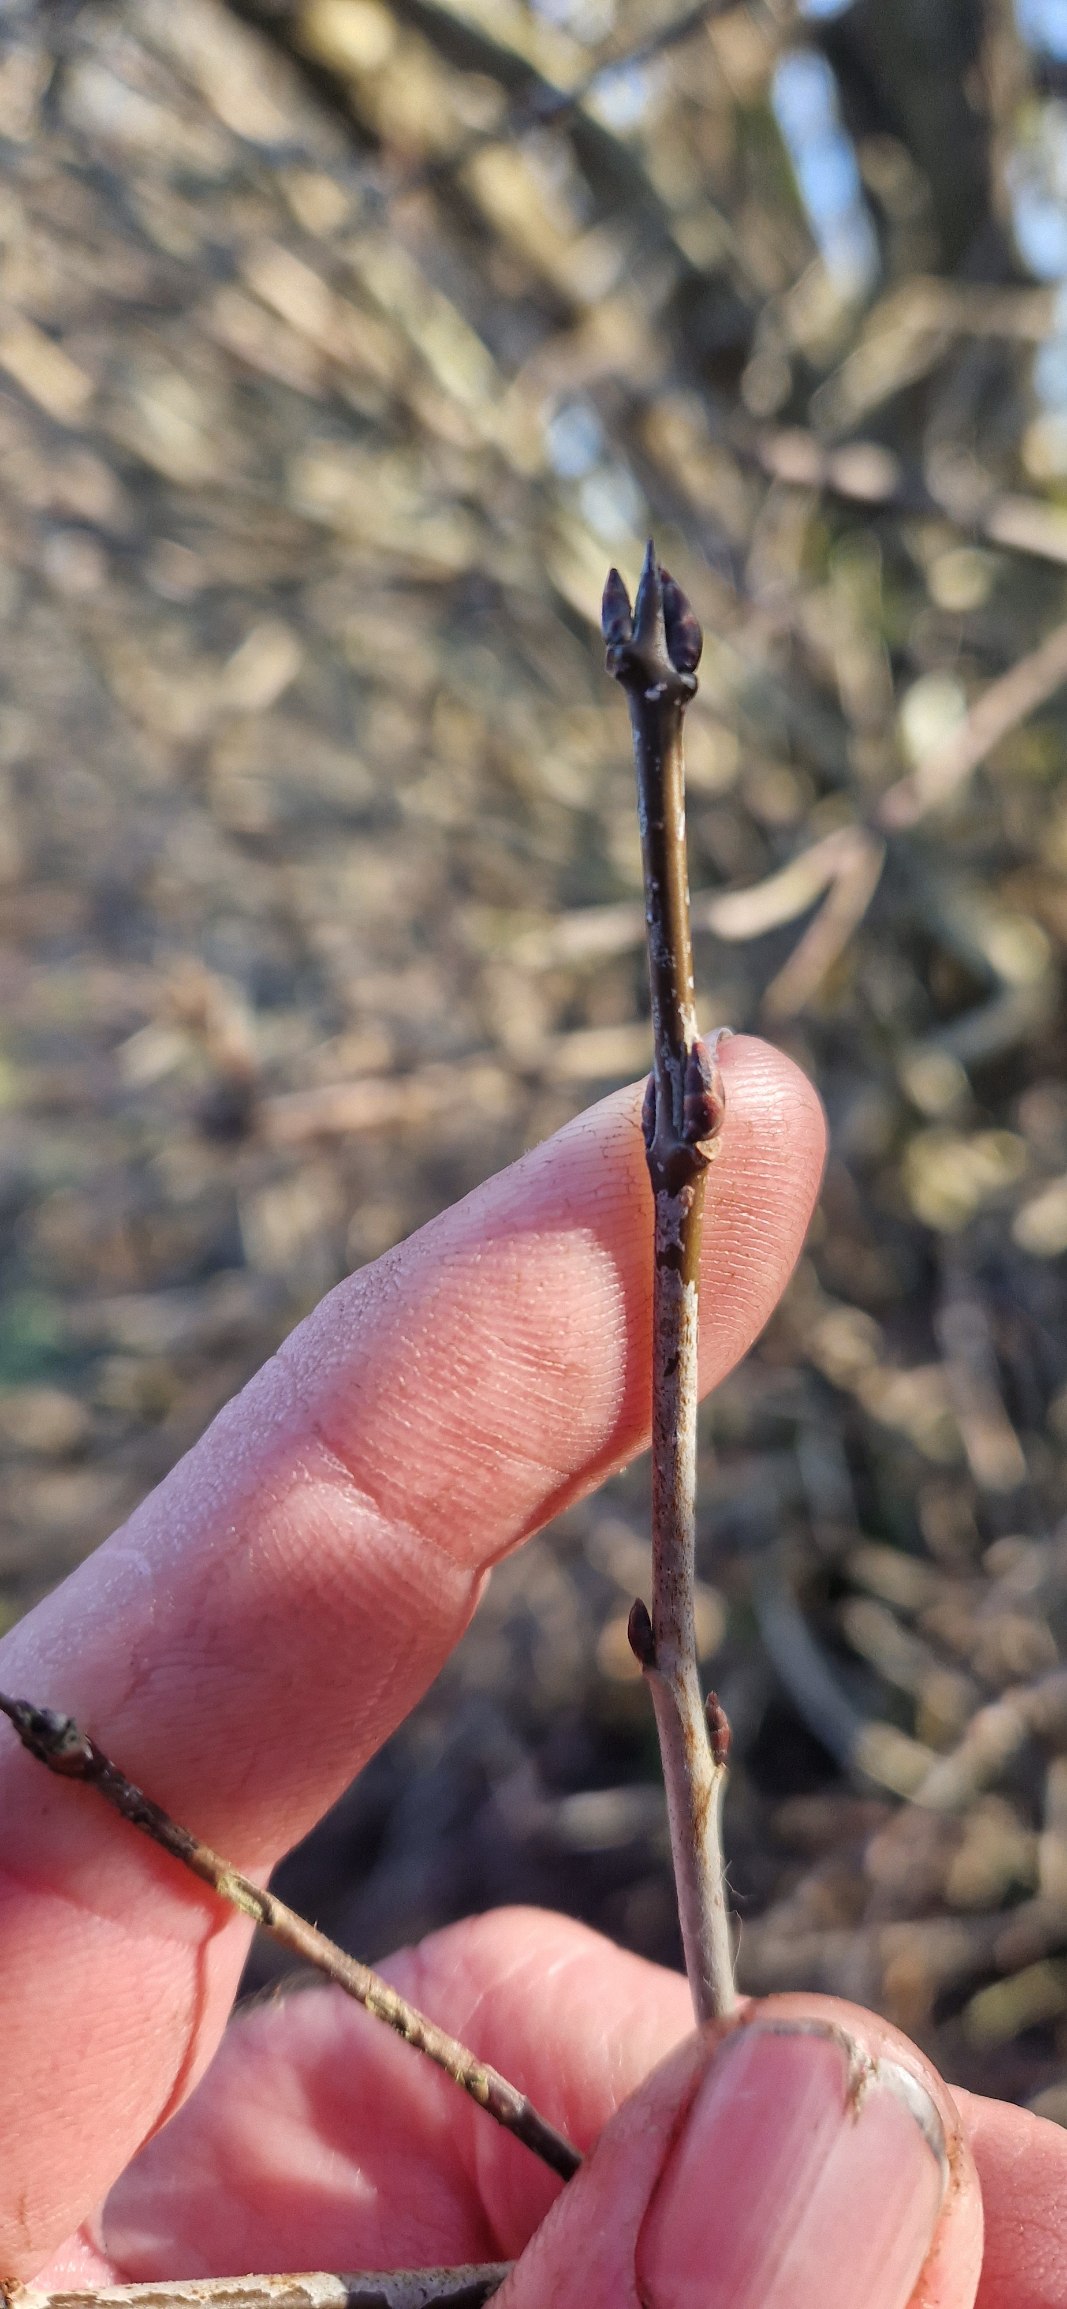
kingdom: Plantae
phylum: Tracheophyta
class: Magnoliopsida
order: Rosales
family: Rhamnaceae
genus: Rhamnus
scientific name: Rhamnus cathartica
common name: Vrietorn
